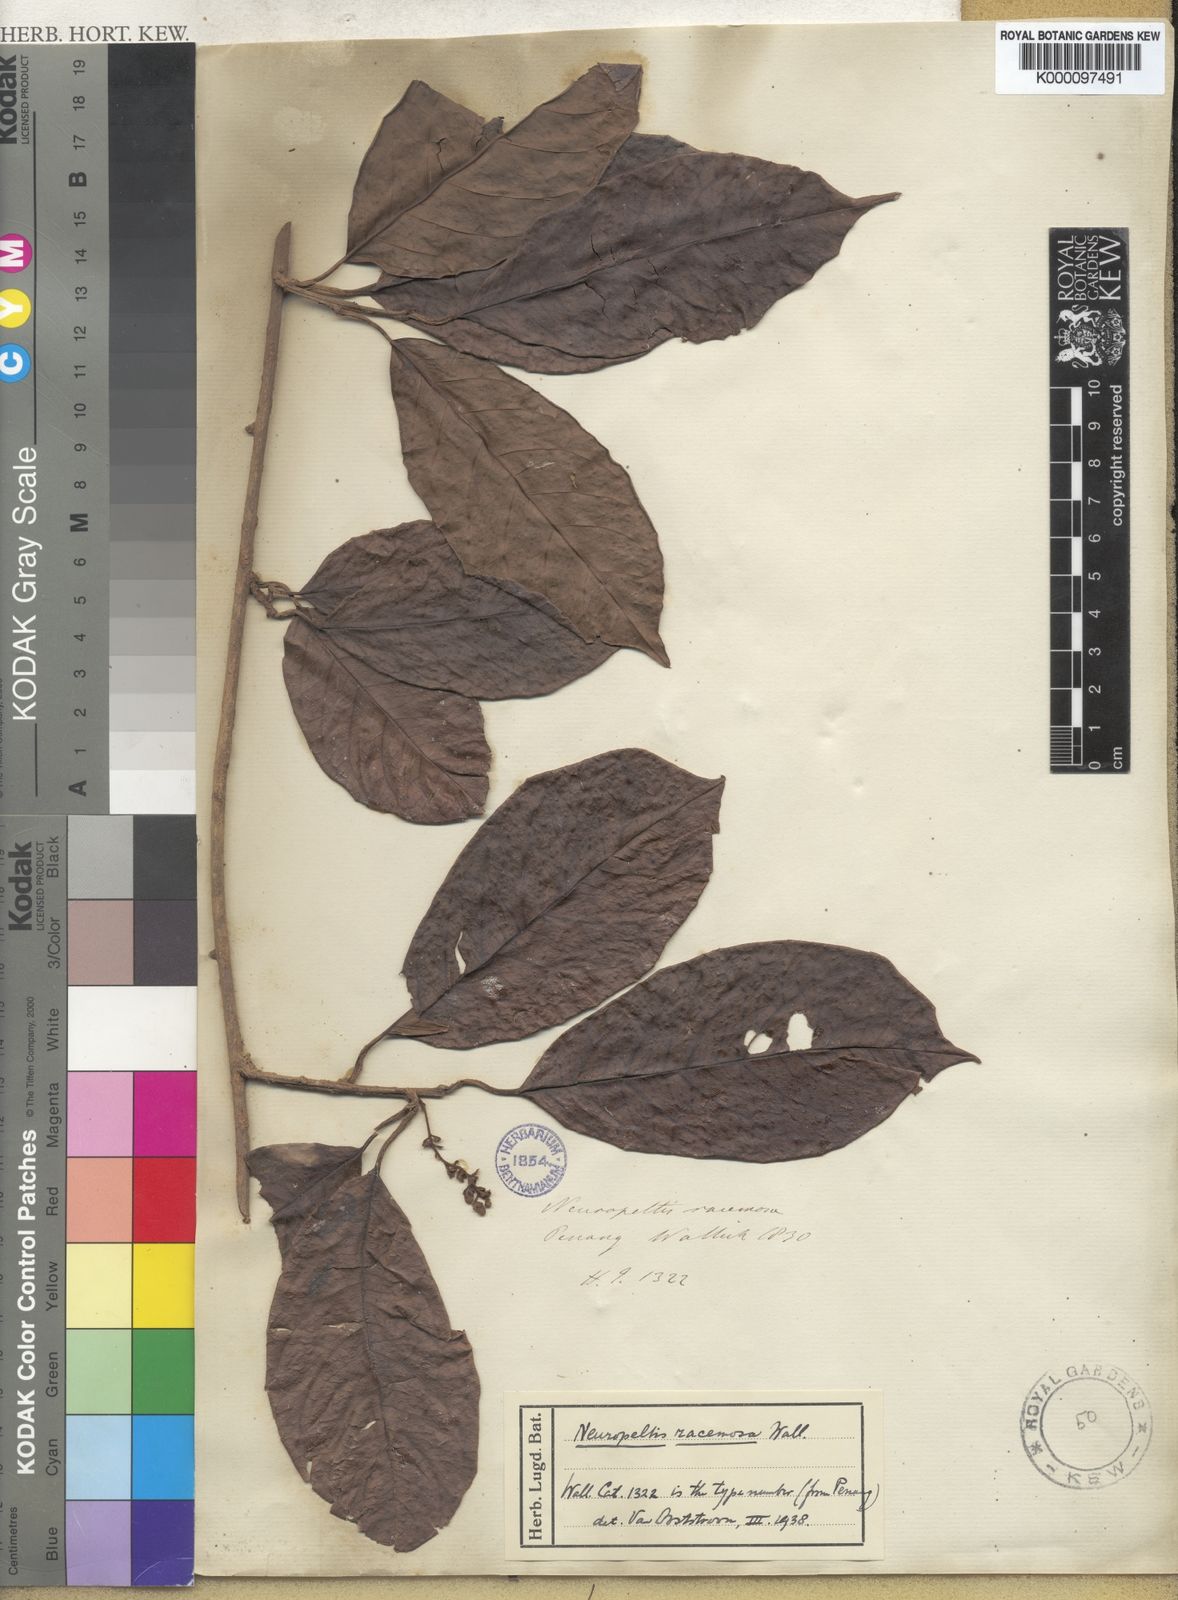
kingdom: Plantae
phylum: Tracheophyta
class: Magnoliopsida
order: Solanales
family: Convolvulaceae
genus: Neuropeltis
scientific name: Neuropeltis racemosa
